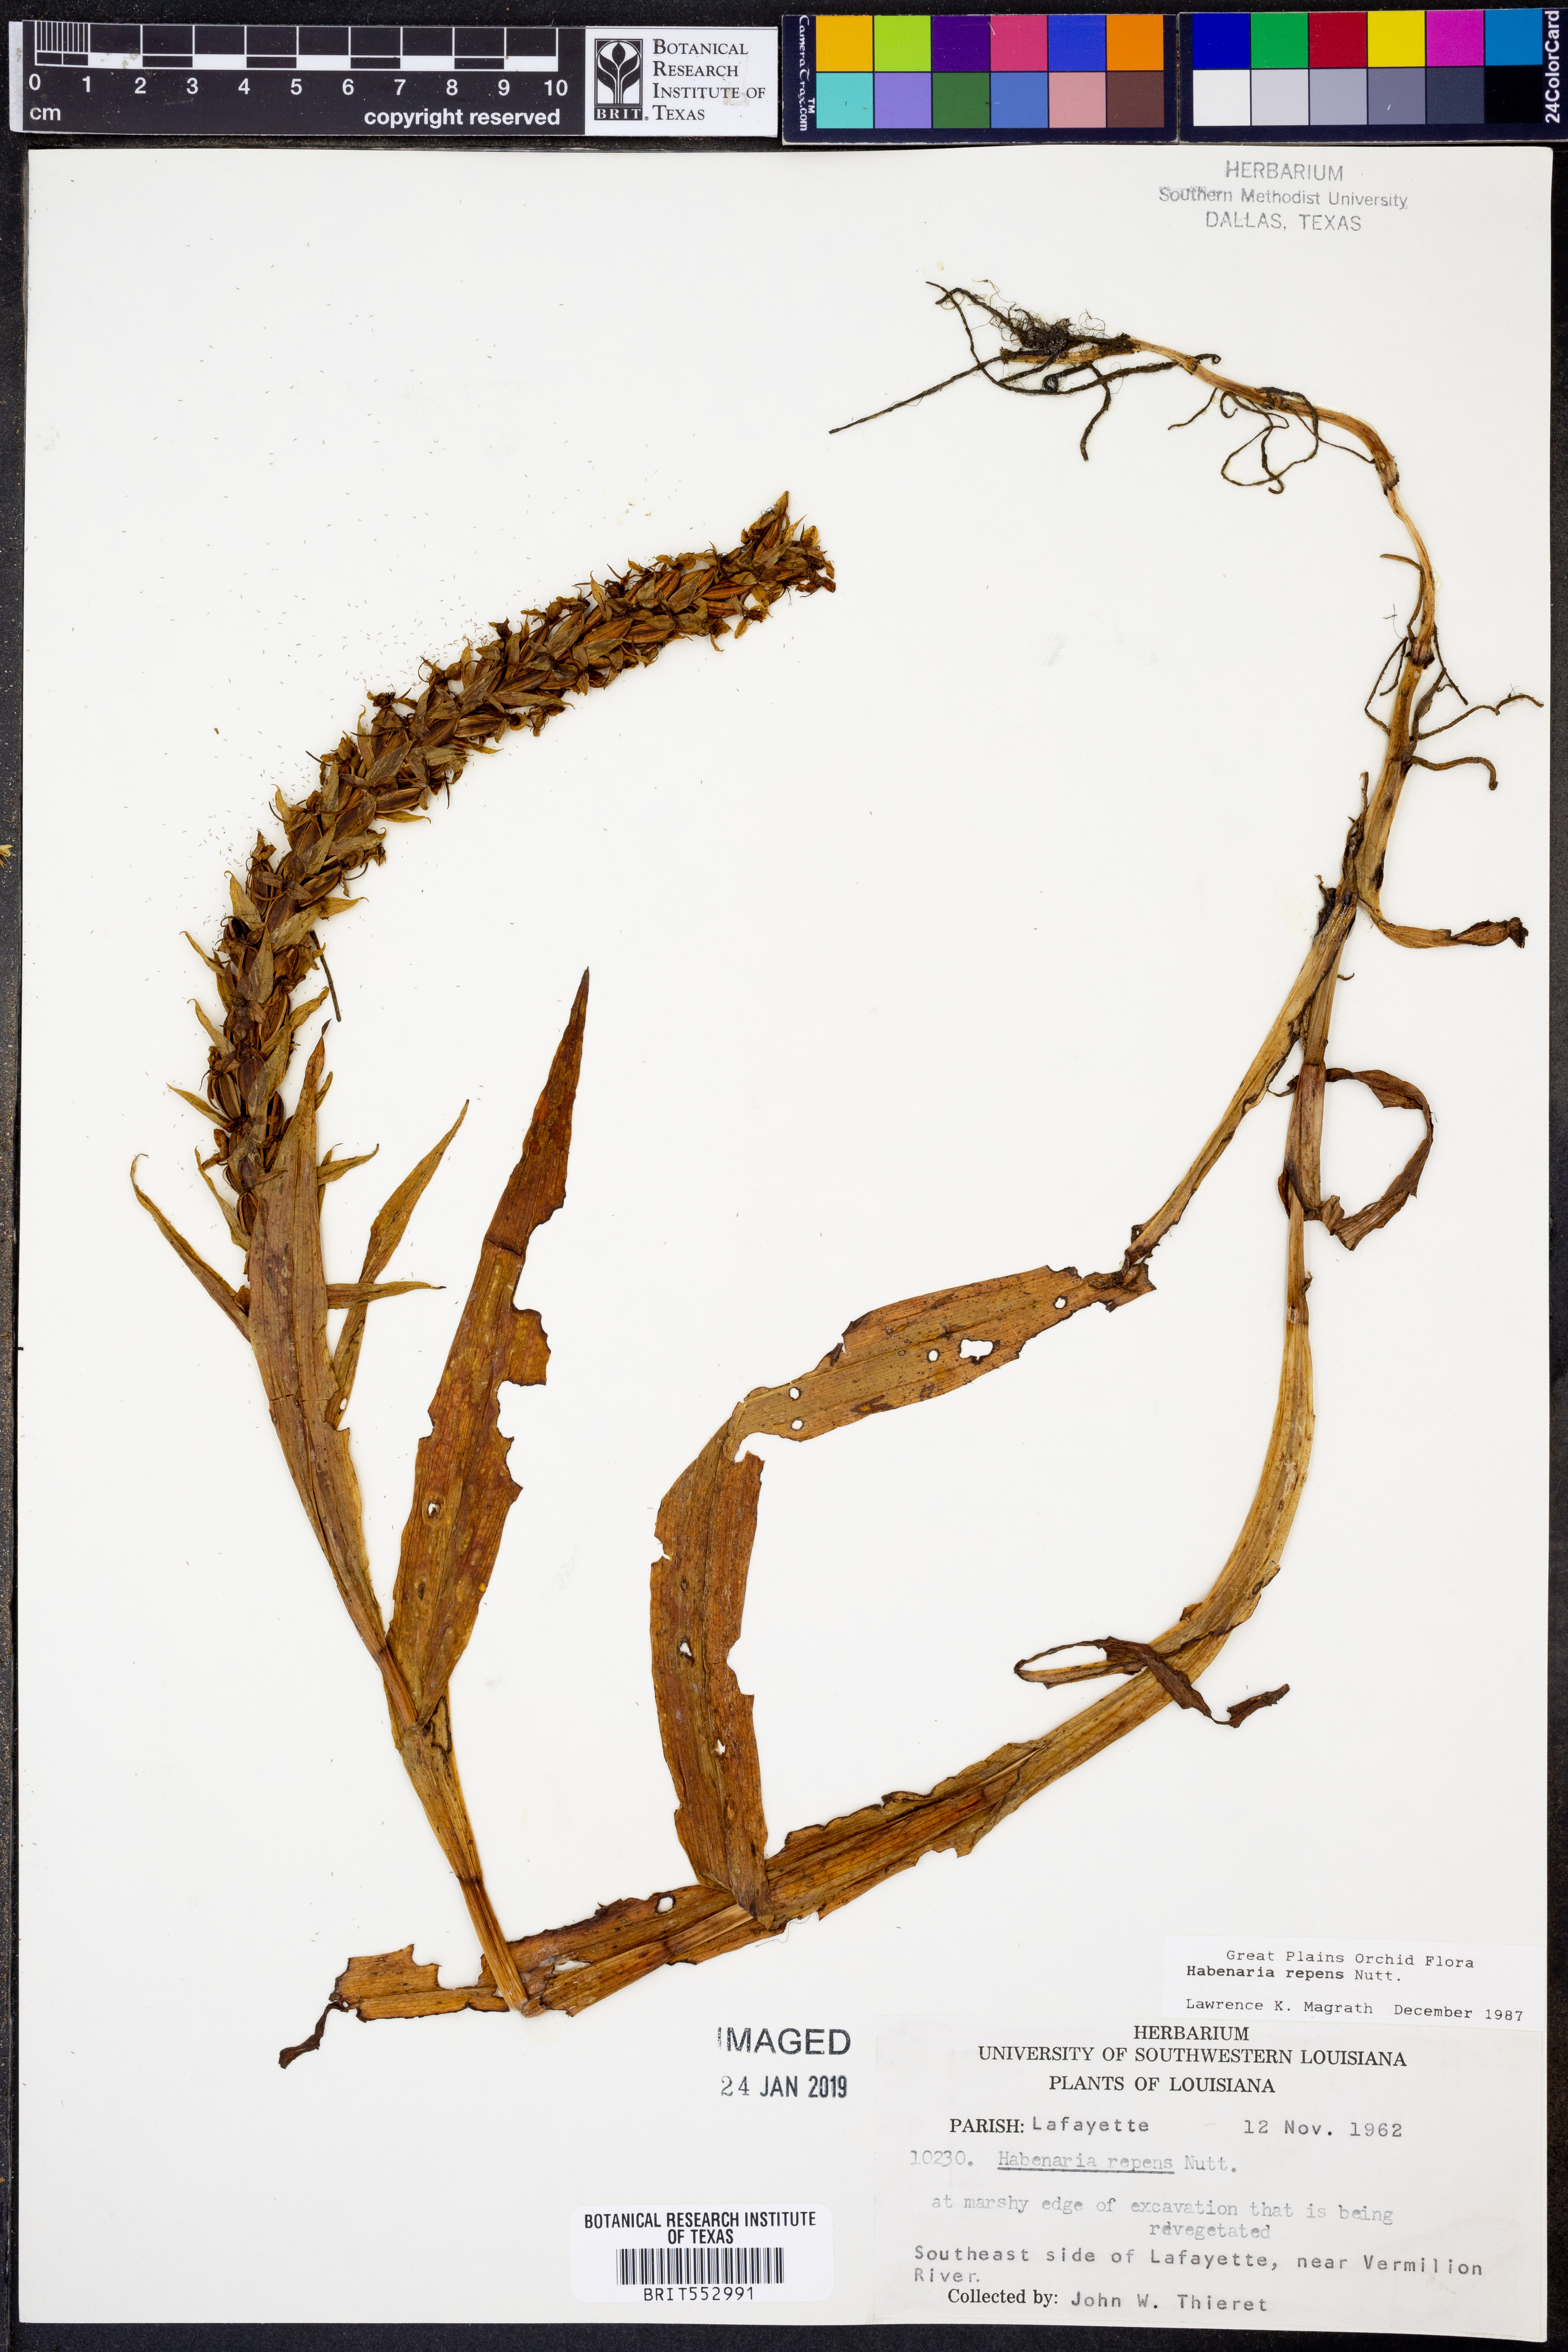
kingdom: Plantae
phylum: Tracheophyta
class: Liliopsida
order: Asparagales
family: Orchidaceae
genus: Habenaria
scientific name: Habenaria repens
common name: Water orchid
